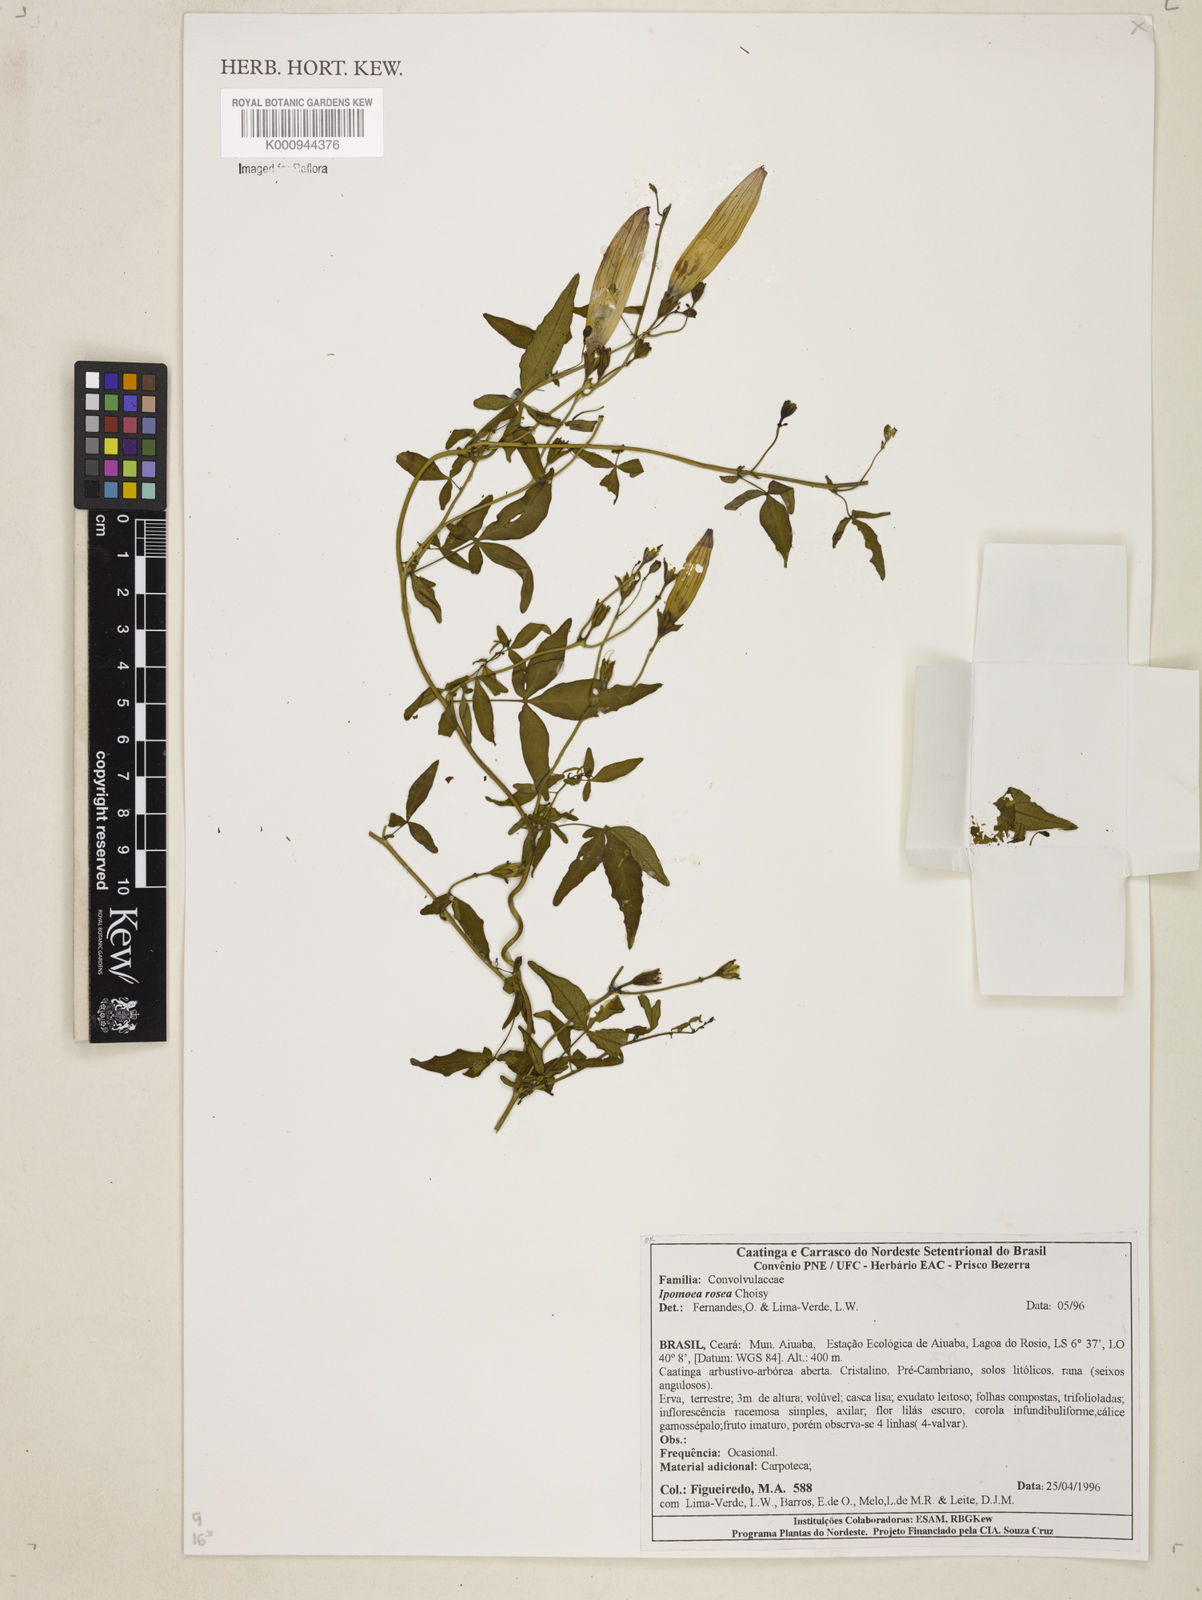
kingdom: Plantae
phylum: Tracheophyta
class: Magnoliopsida
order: Solanales
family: Convolvulaceae
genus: Ipomoea
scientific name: Ipomoea rosea
